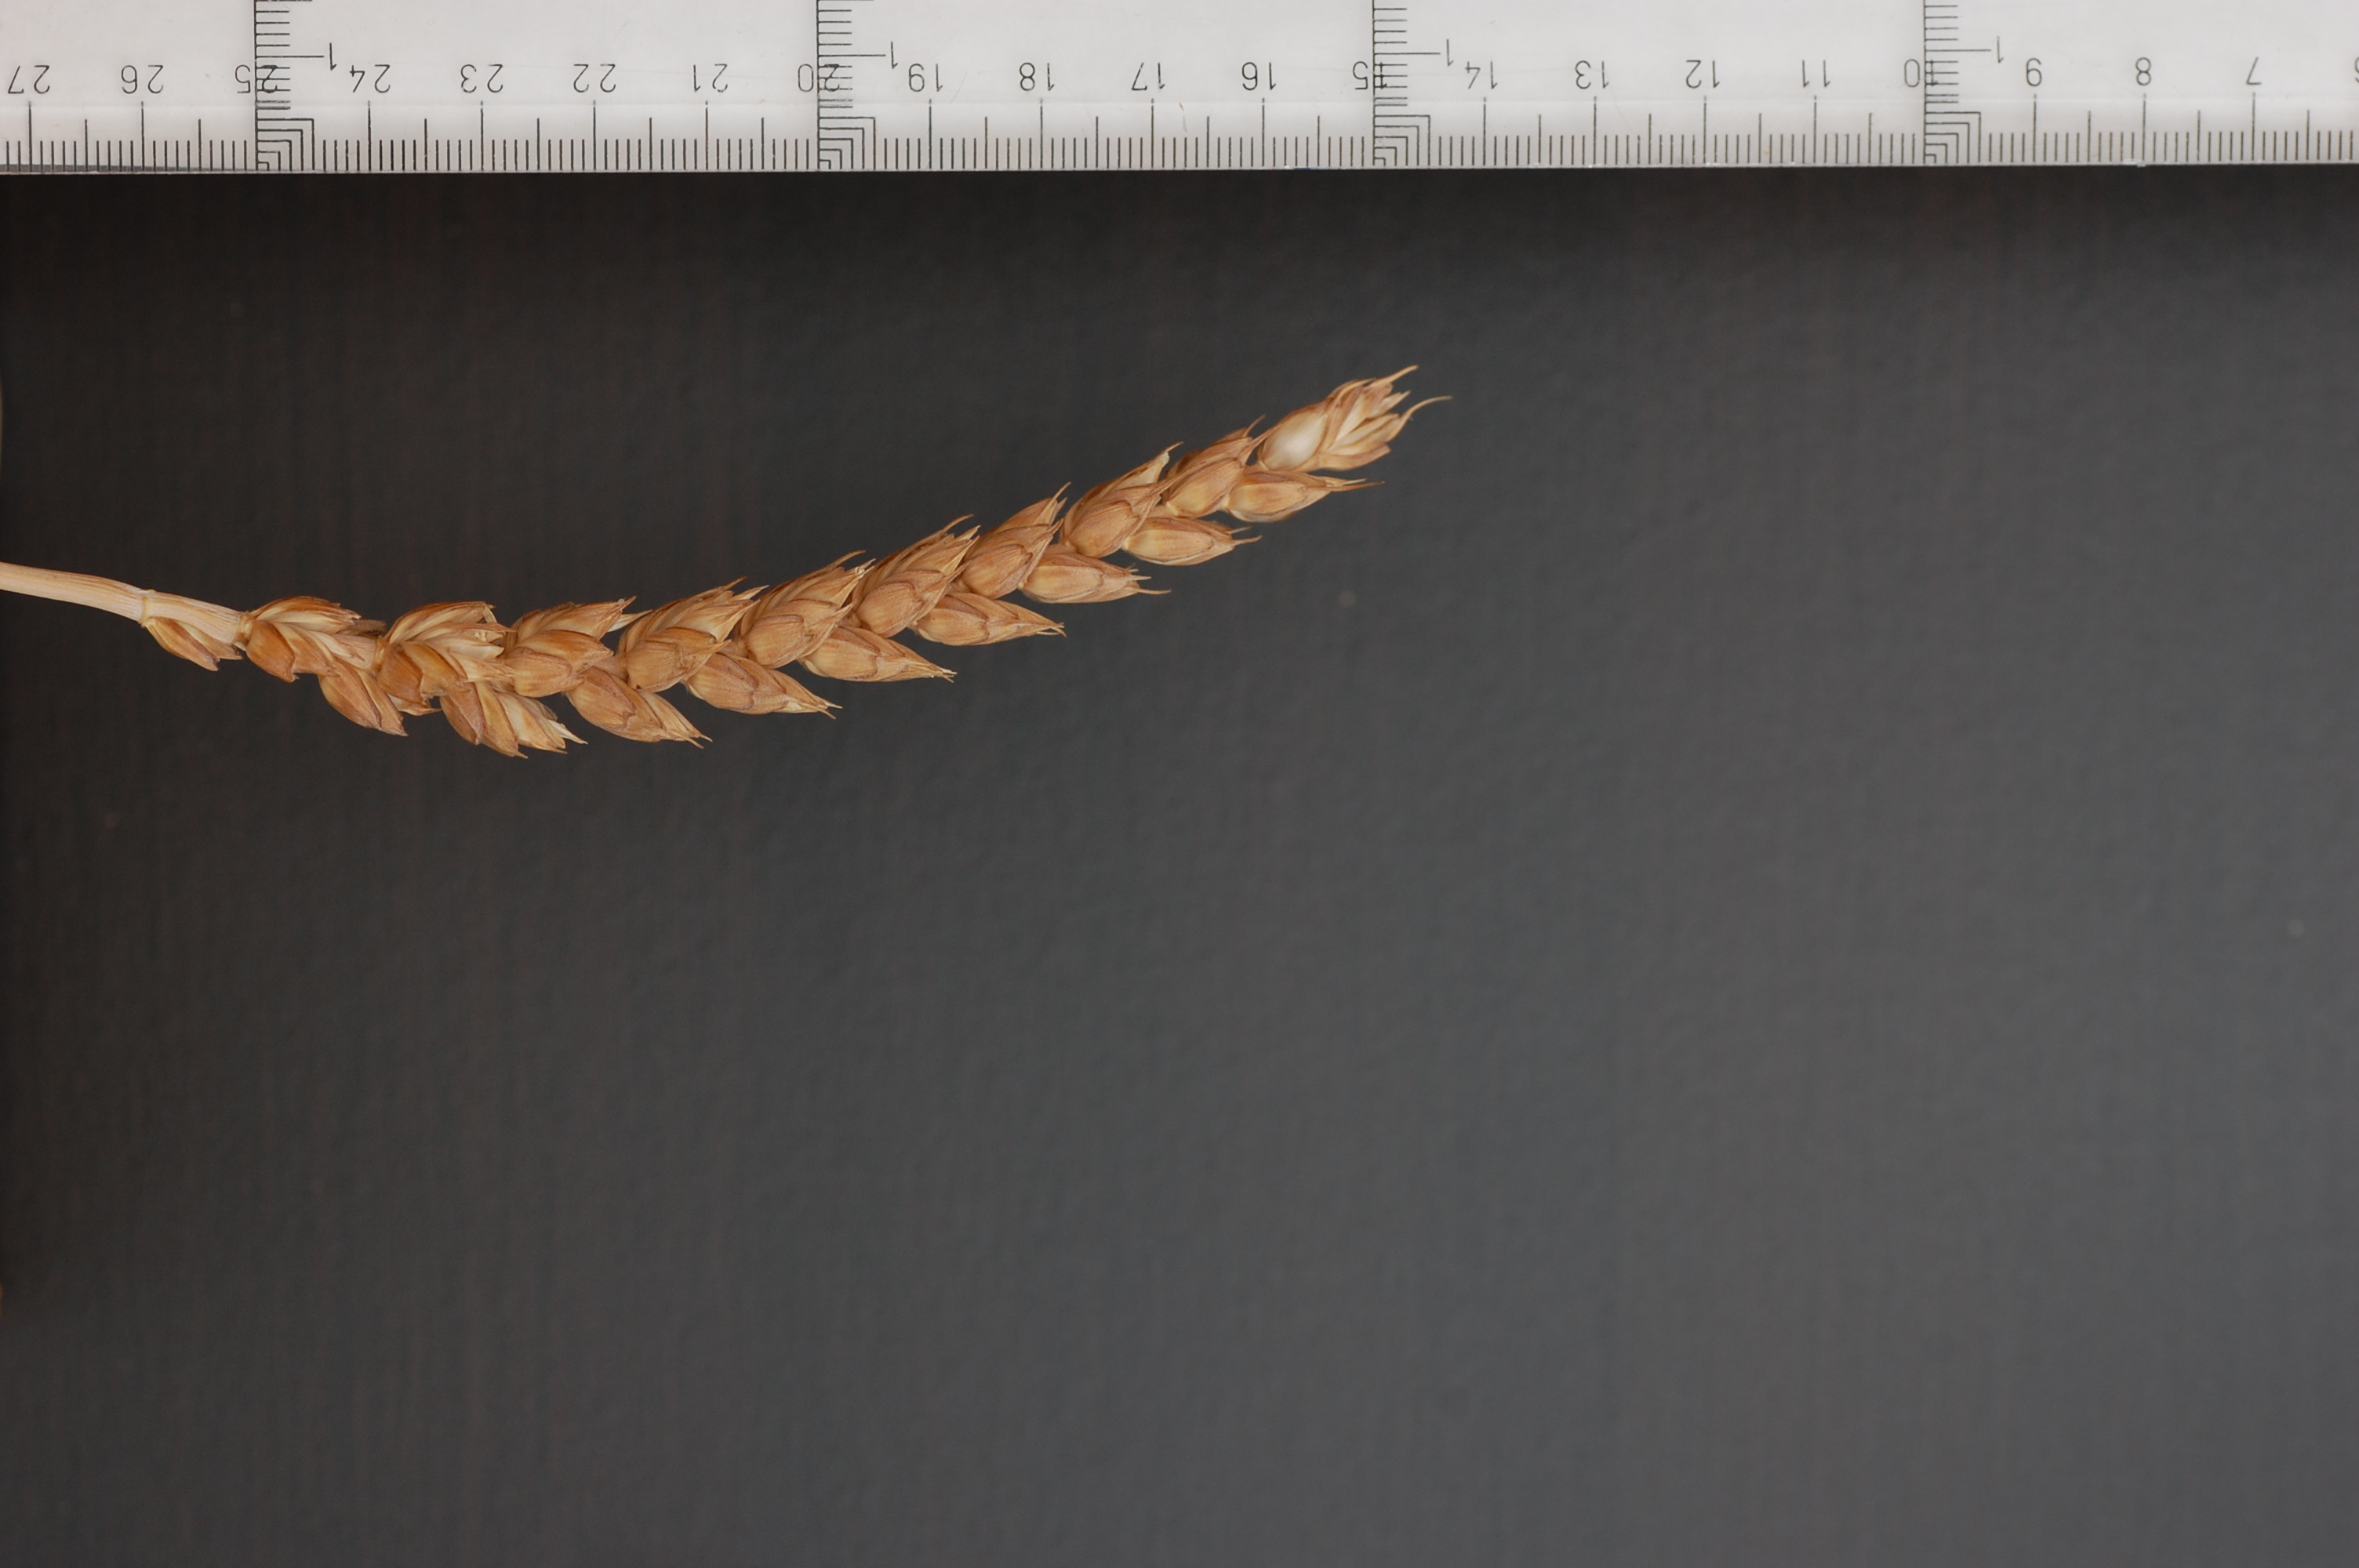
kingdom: Plantae
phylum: Tracheophyta
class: Liliopsida
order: Poales
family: Poaceae
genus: Triticum
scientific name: Triticum aestivum
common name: Common wheat
